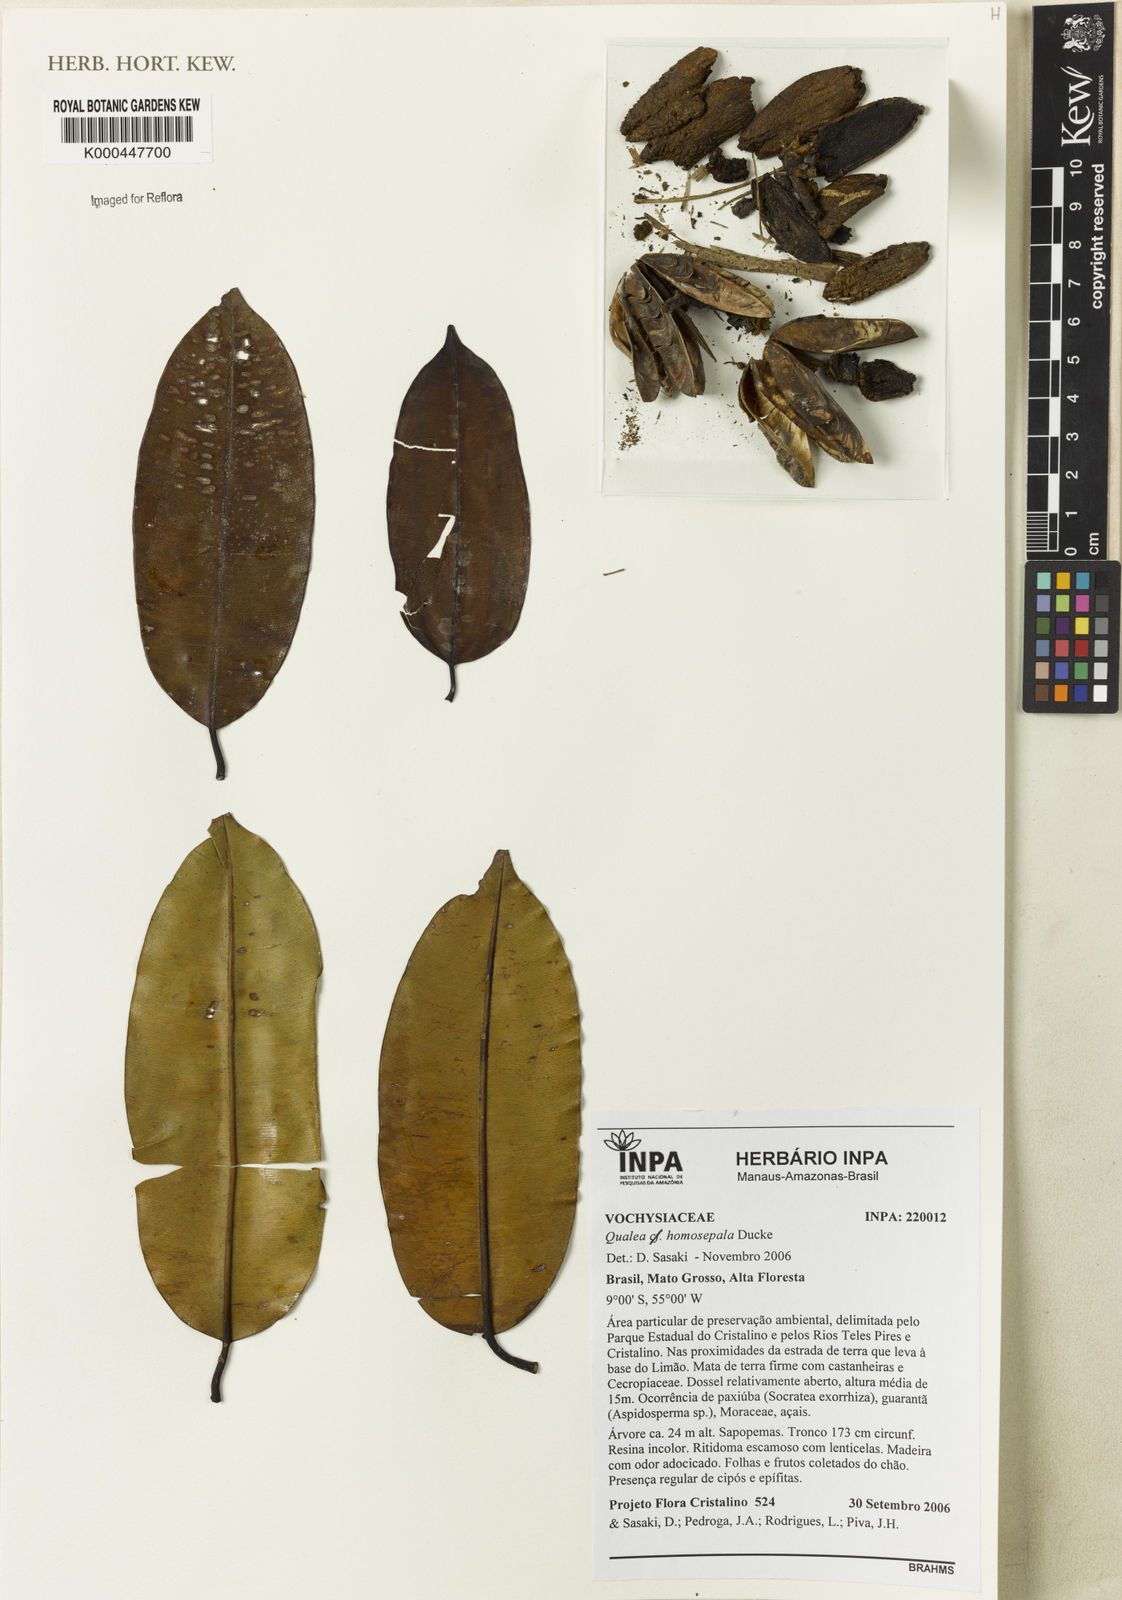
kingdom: Plantae
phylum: Tracheophyta
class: Magnoliopsida
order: Myrtales
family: Vochysiaceae
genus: Qualea
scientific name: Qualea homosepala
